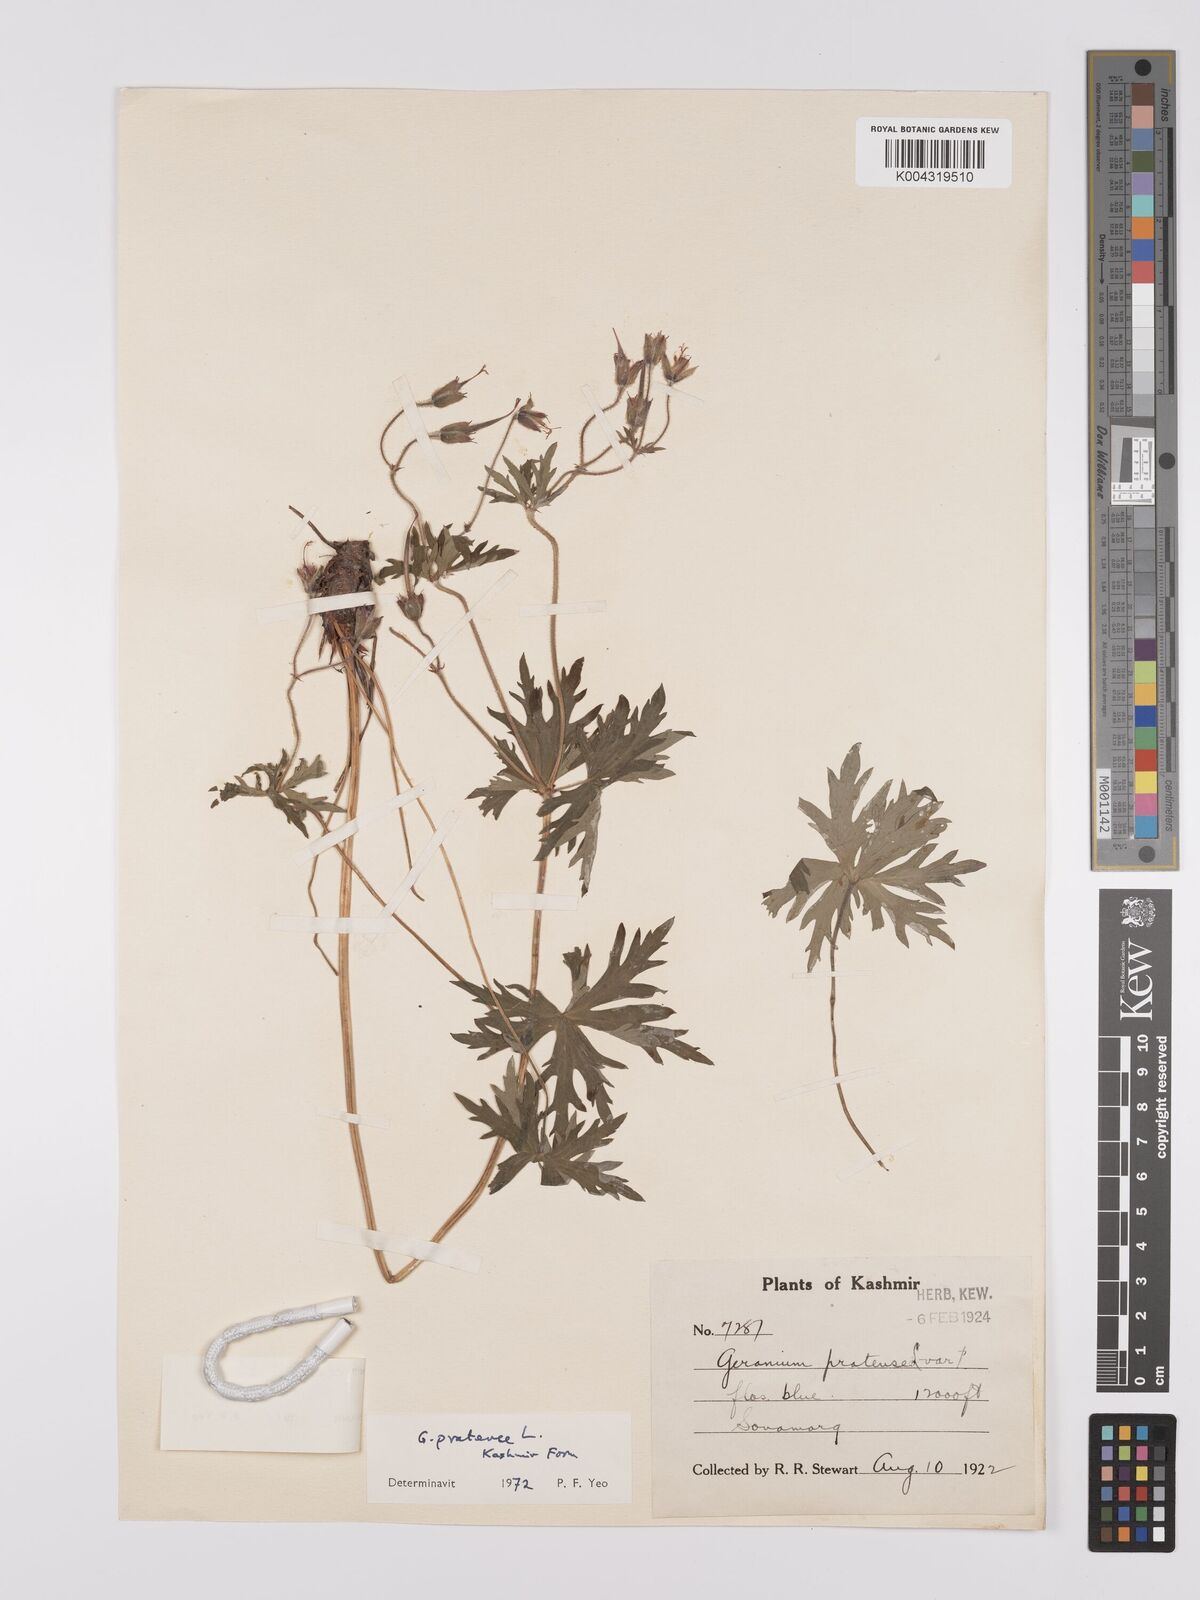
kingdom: Plantae
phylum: Tracheophyta
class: Magnoliopsida
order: Geraniales
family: Geraniaceae
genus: Geranium
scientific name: Geranium clarkei
